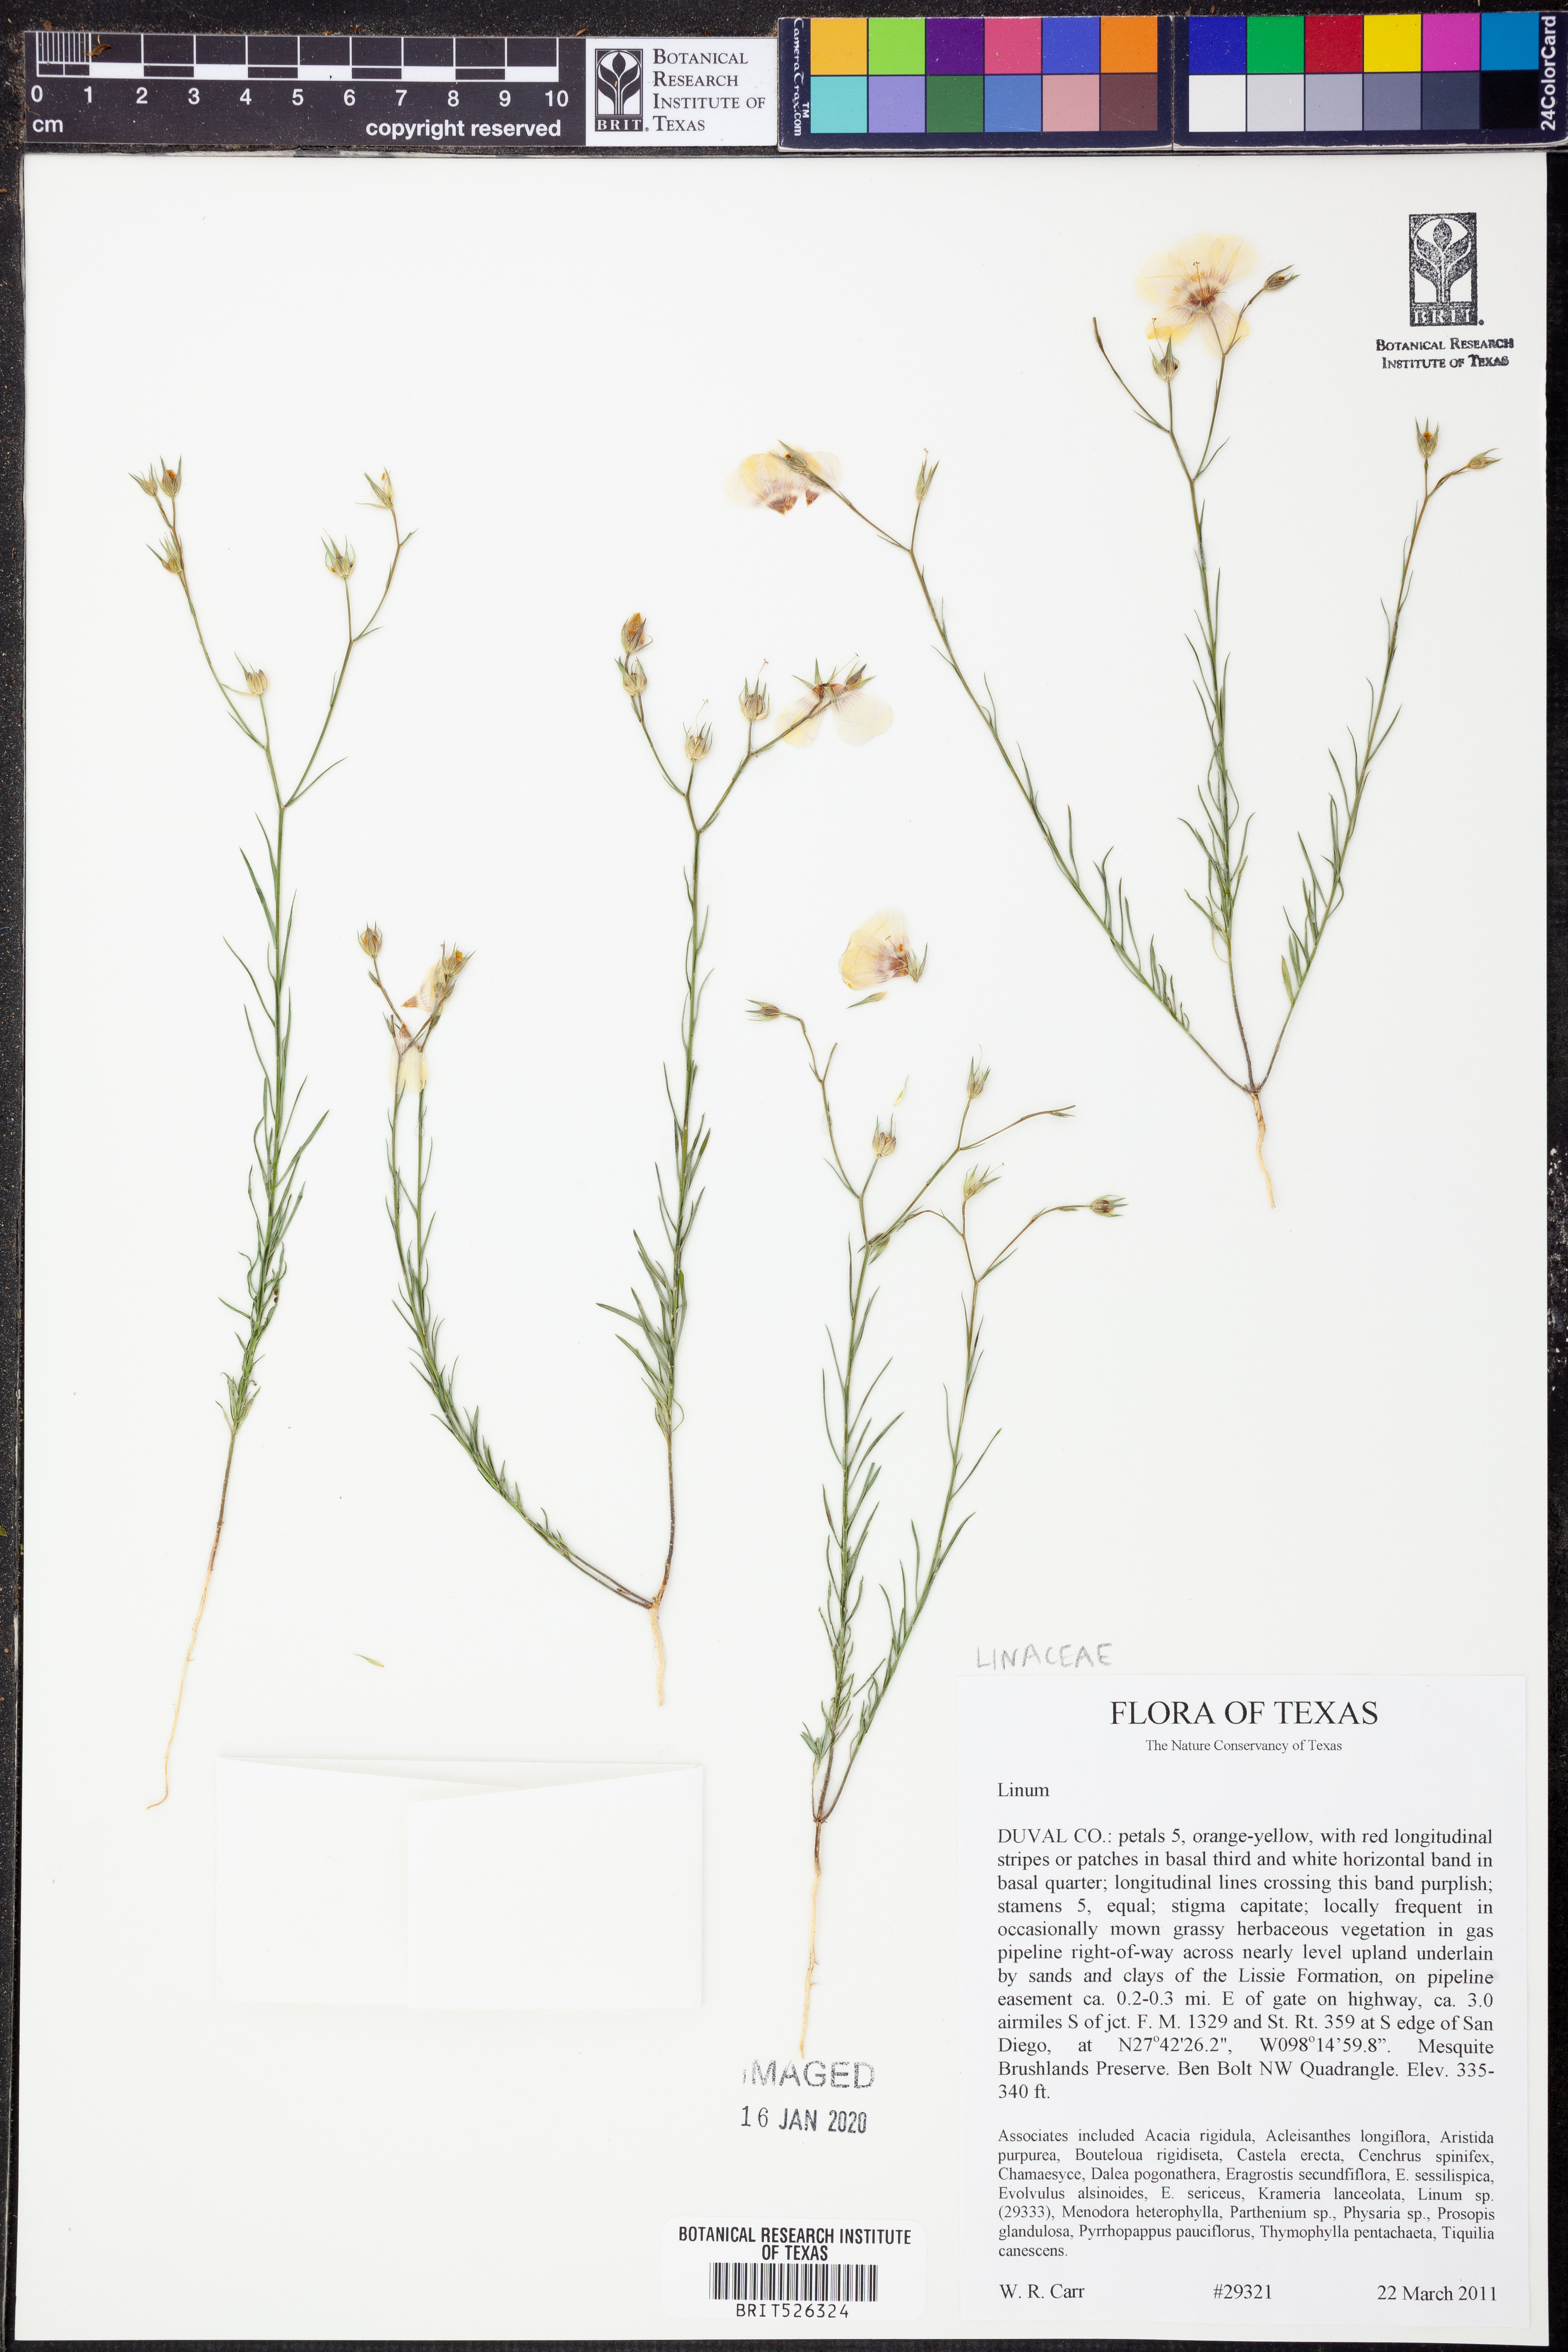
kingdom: Plantae
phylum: Tracheophyta
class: Magnoliopsida
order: Malpighiales
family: Linaceae
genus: Linum
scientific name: Linum
